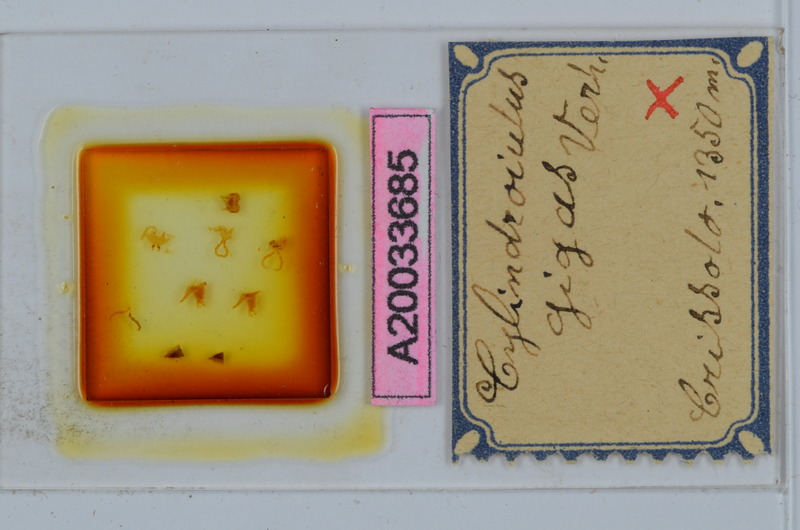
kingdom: Animalia
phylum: Arthropoda
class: Diplopoda
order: Julida
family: Julidae
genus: Cylindroiulus
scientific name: Cylindroiulus gigas
